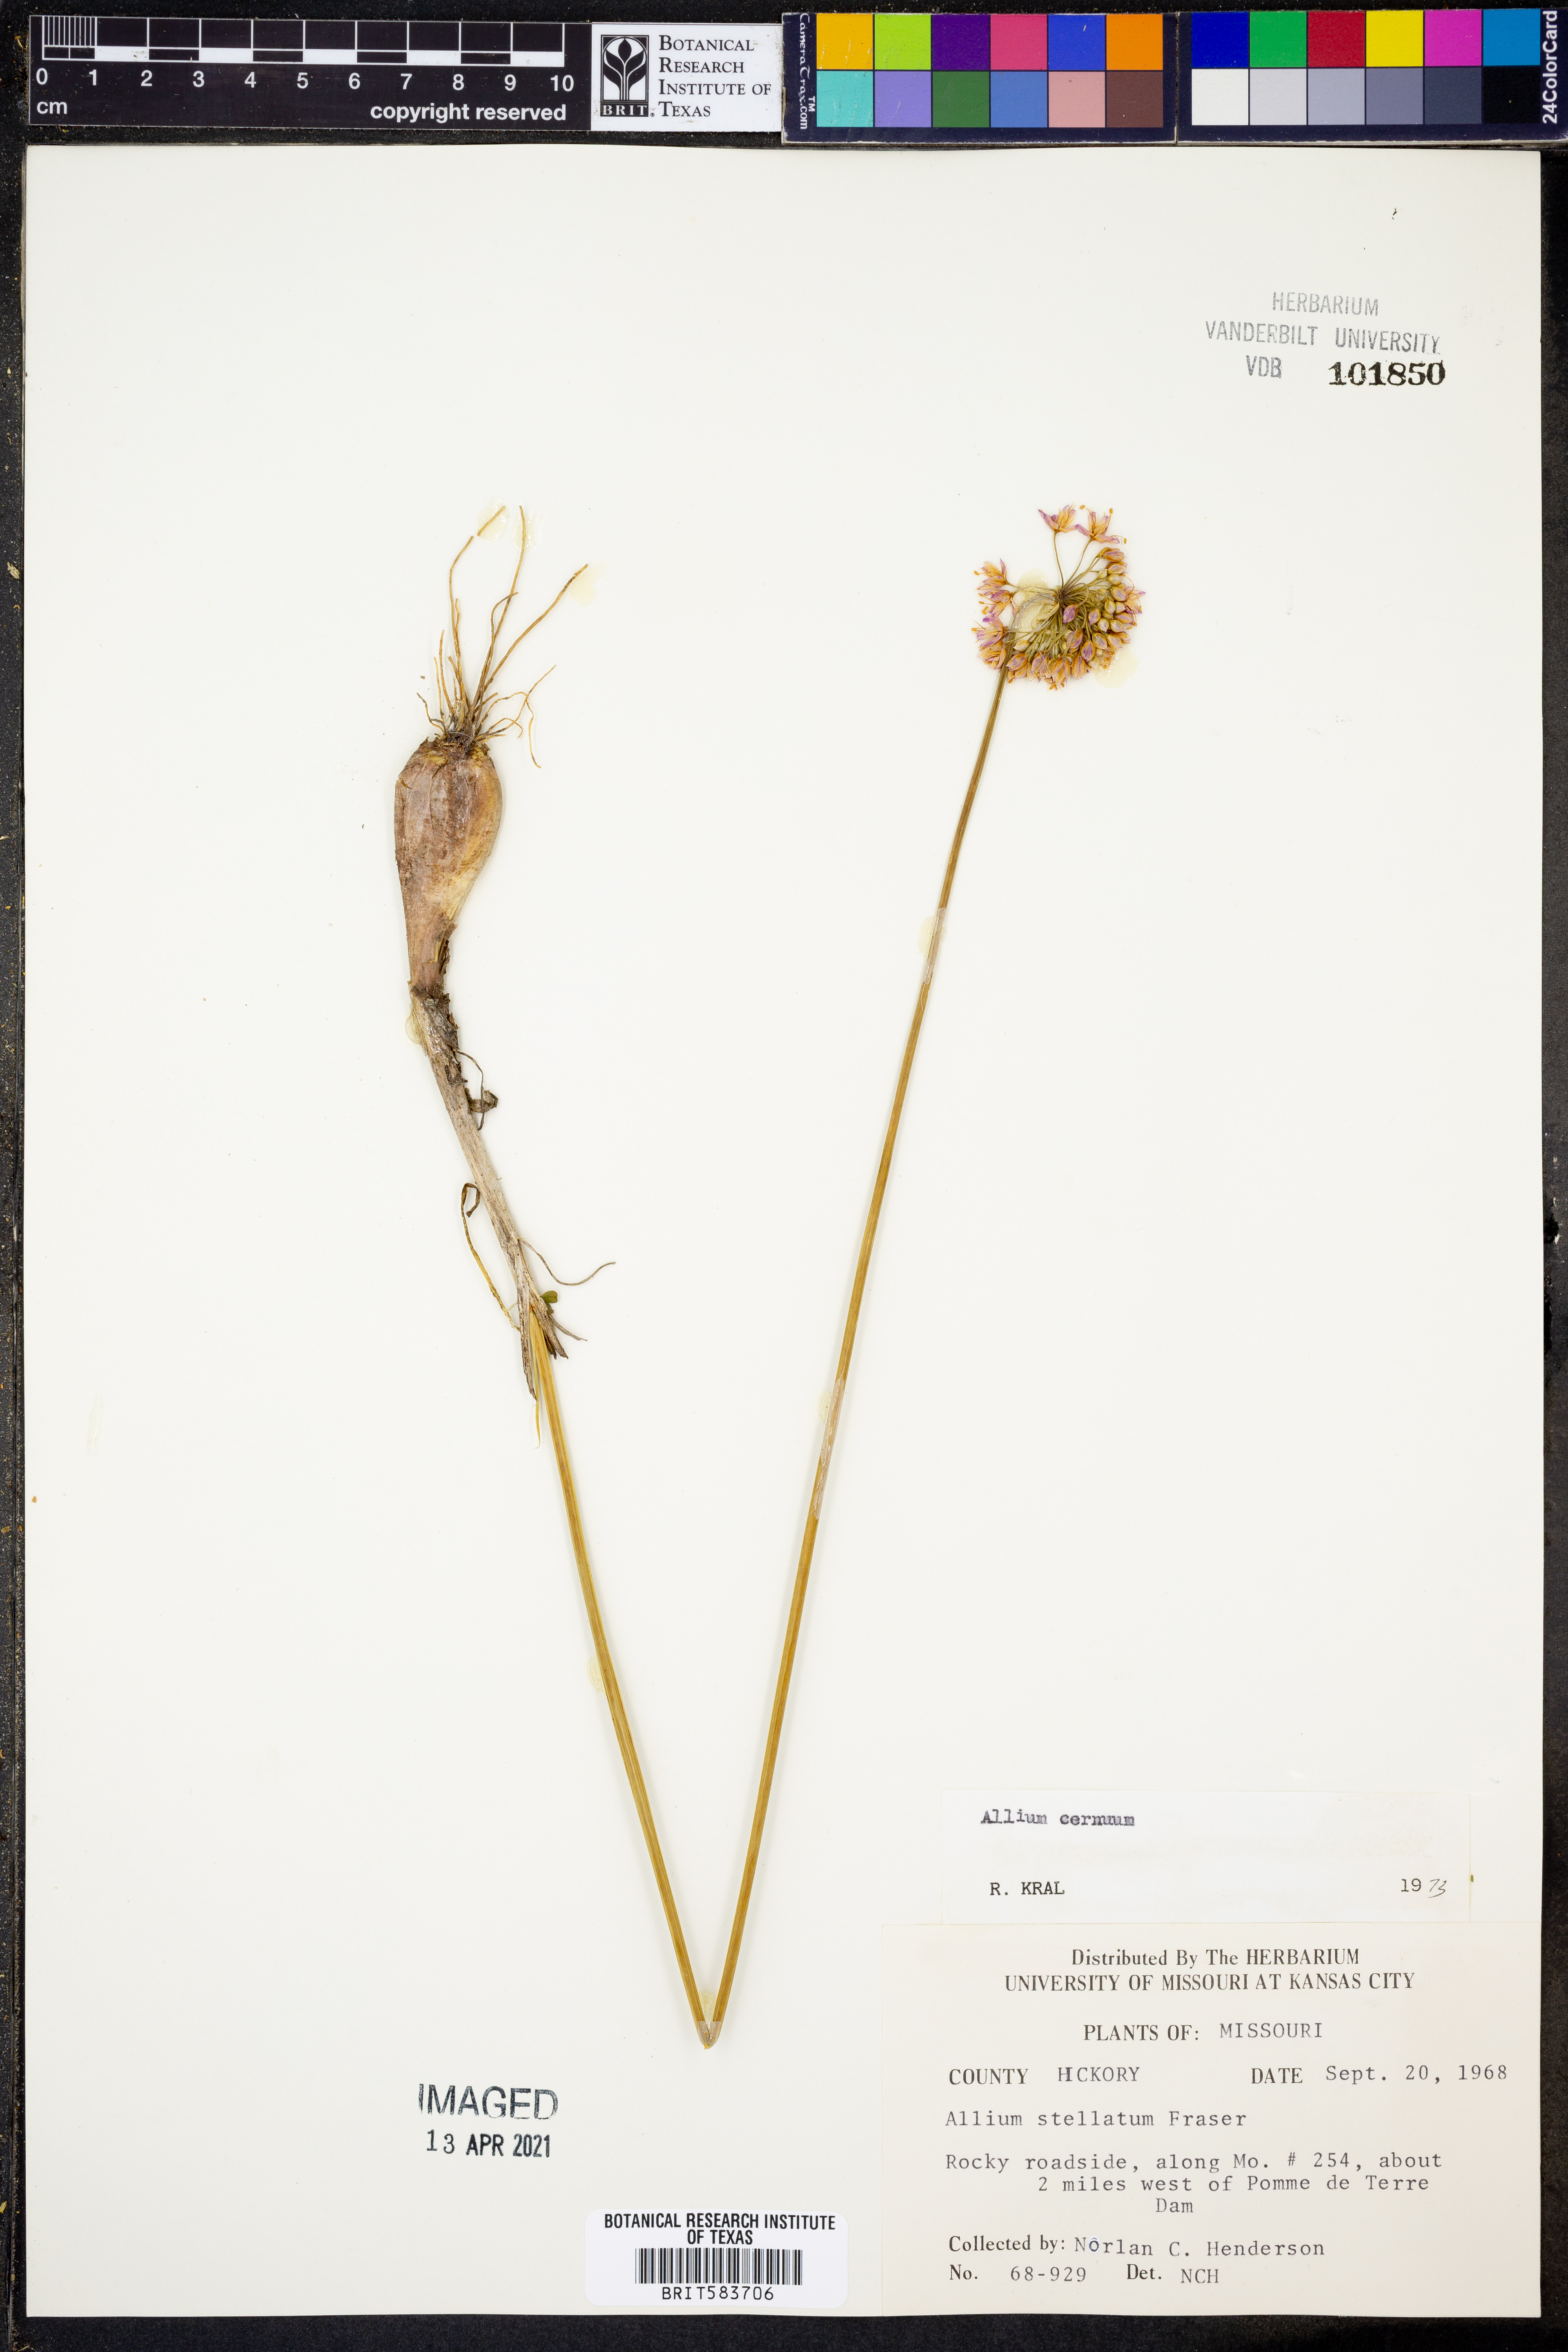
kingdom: Plantae
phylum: Tracheophyta
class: Liliopsida
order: Asparagales
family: Amaryllidaceae
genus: Allium
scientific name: Allium stellatum
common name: Autumn onion
